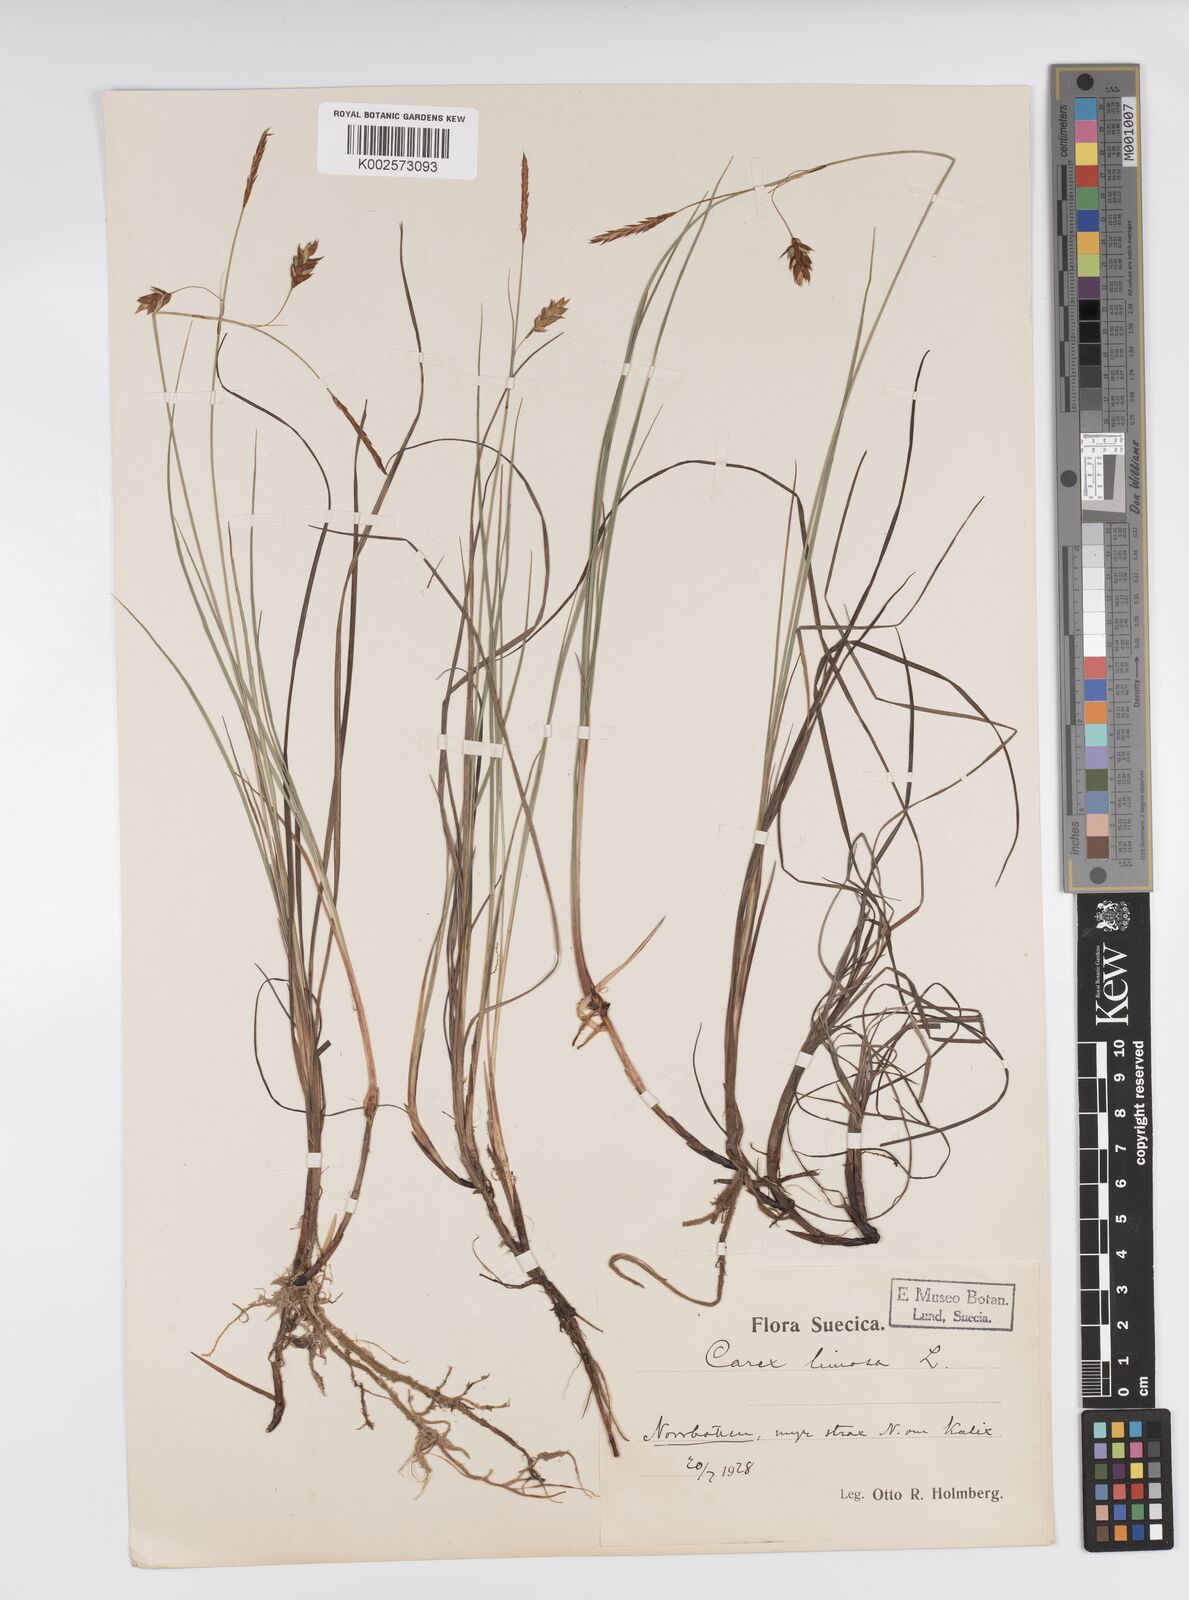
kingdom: Plantae
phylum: Tracheophyta
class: Liliopsida
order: Poales
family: Cyperaceae
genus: Carex
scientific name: Carex limosa
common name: Bog sedge
